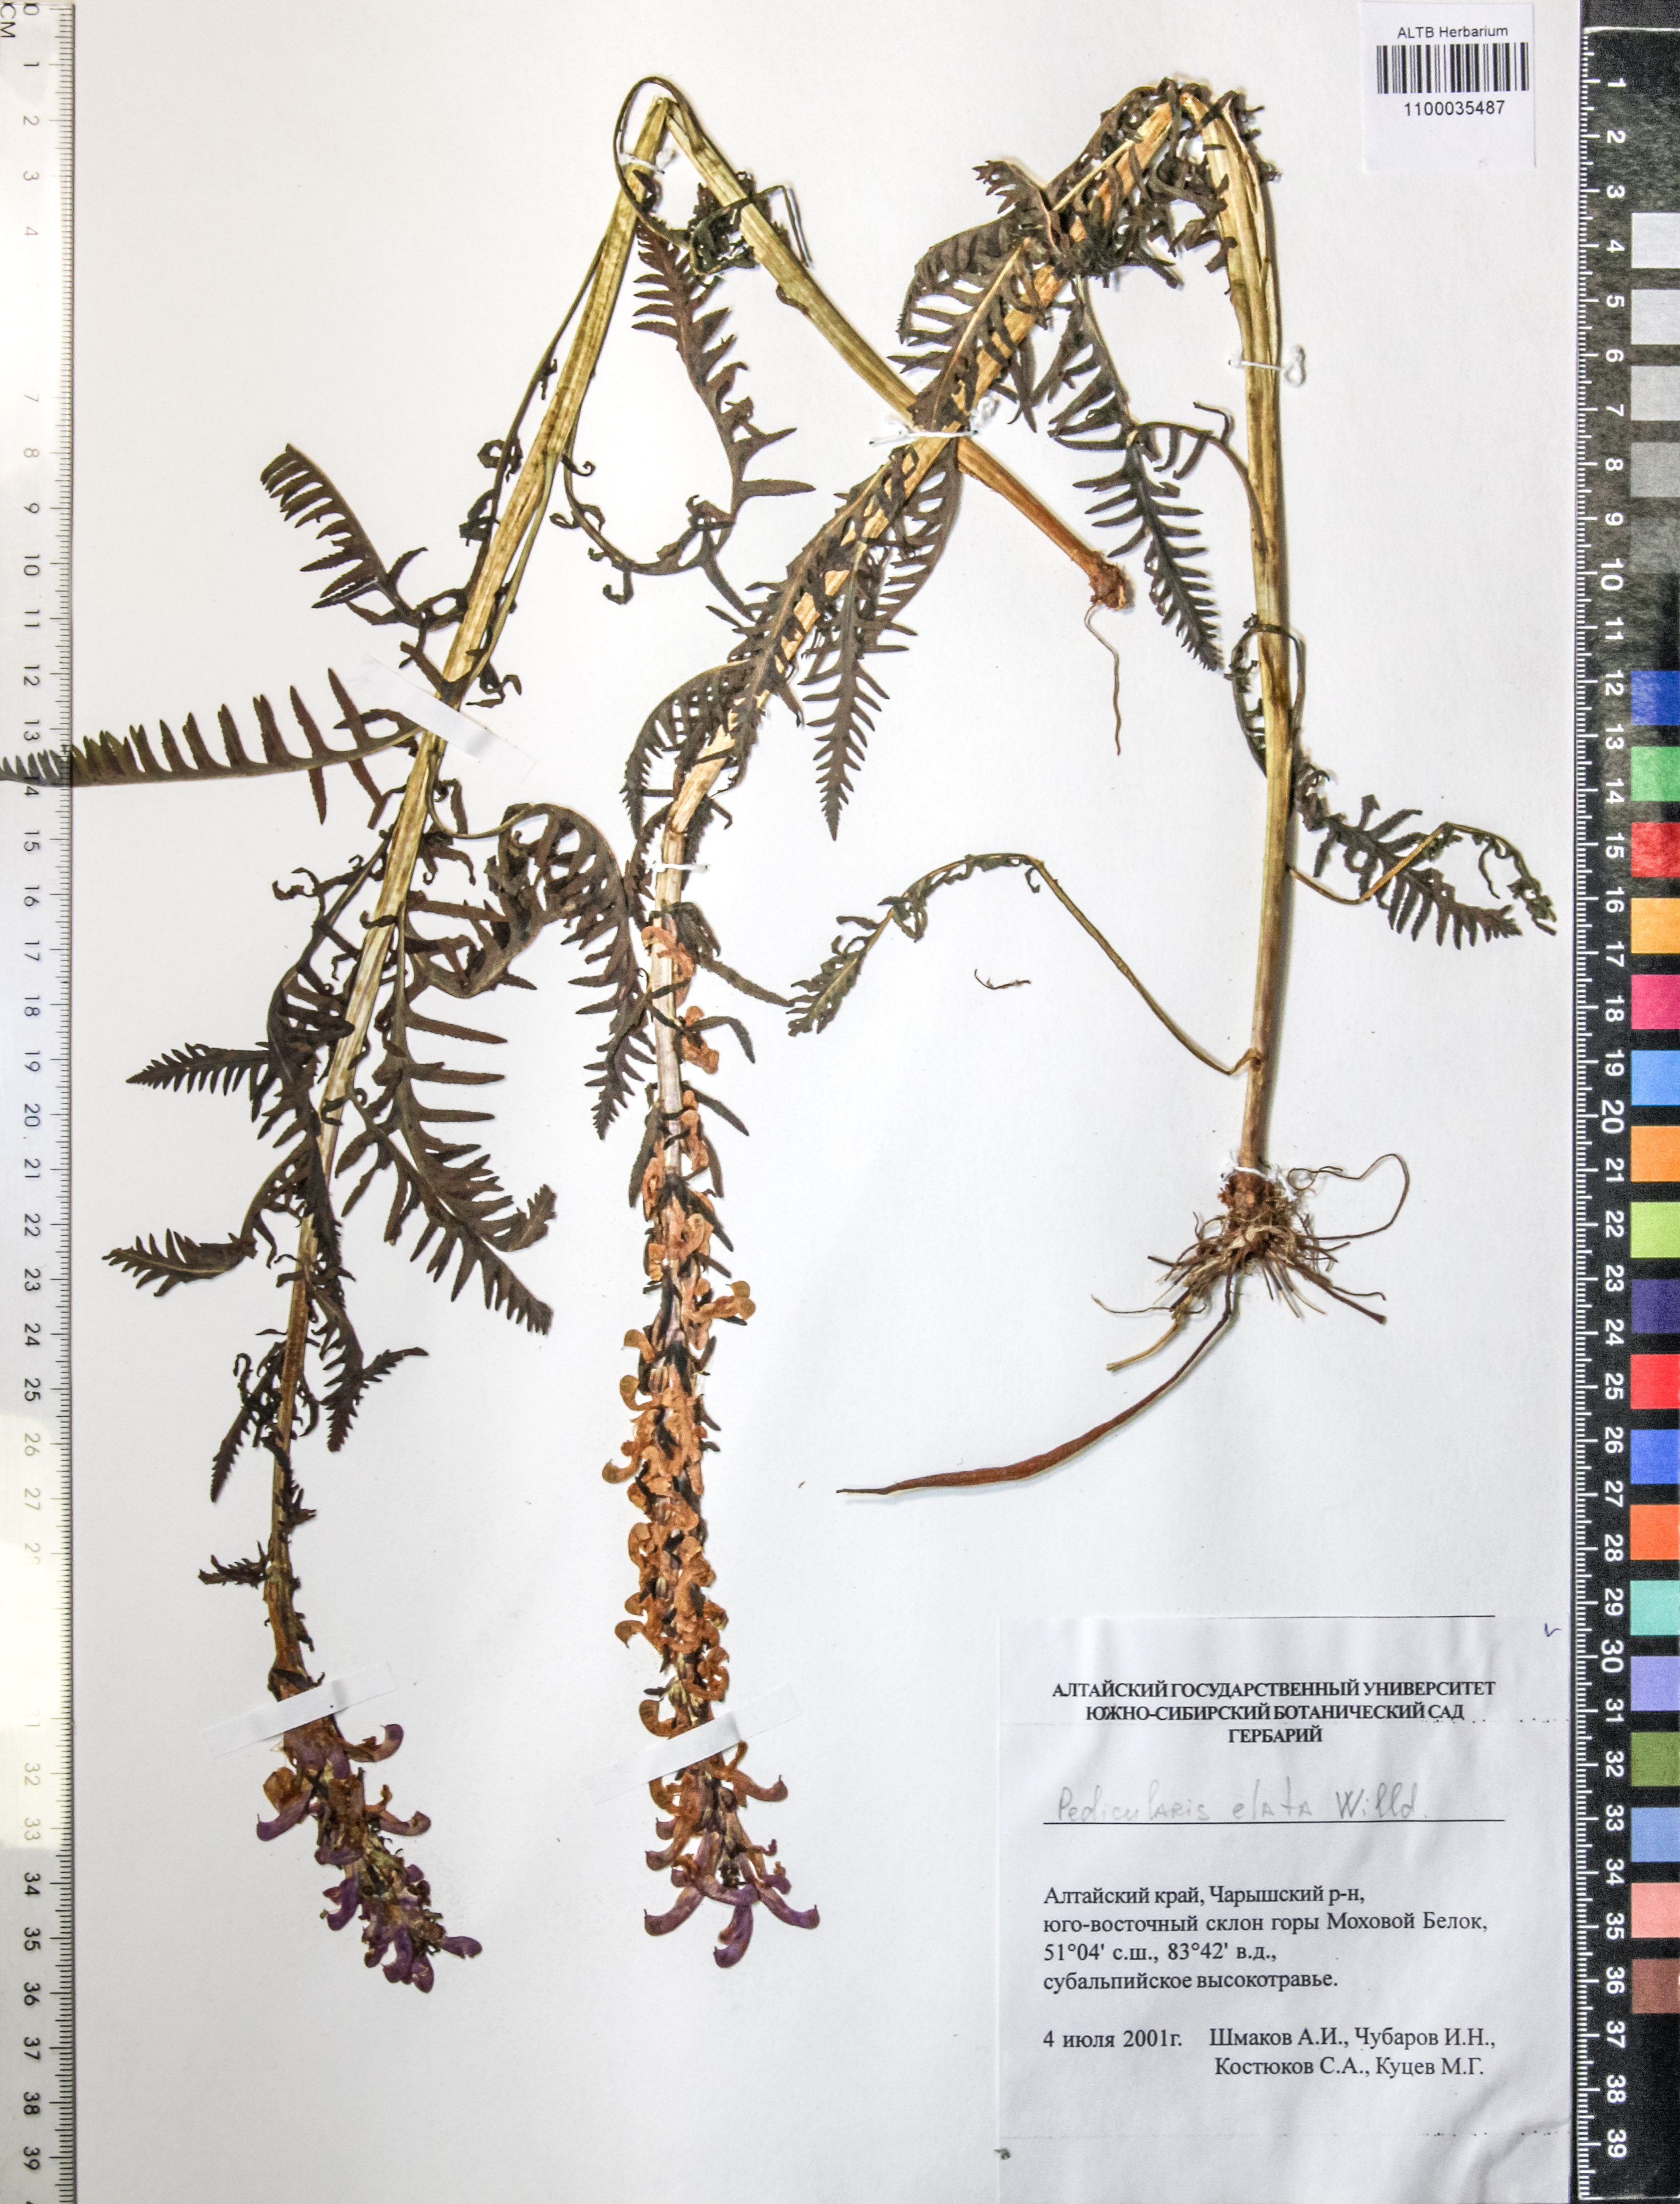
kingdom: Plantae
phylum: Tracheophyta
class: Magnoliopsida
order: Lamiales
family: Orobanchaceae
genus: Pedicularis
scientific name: Pedicularis elata
